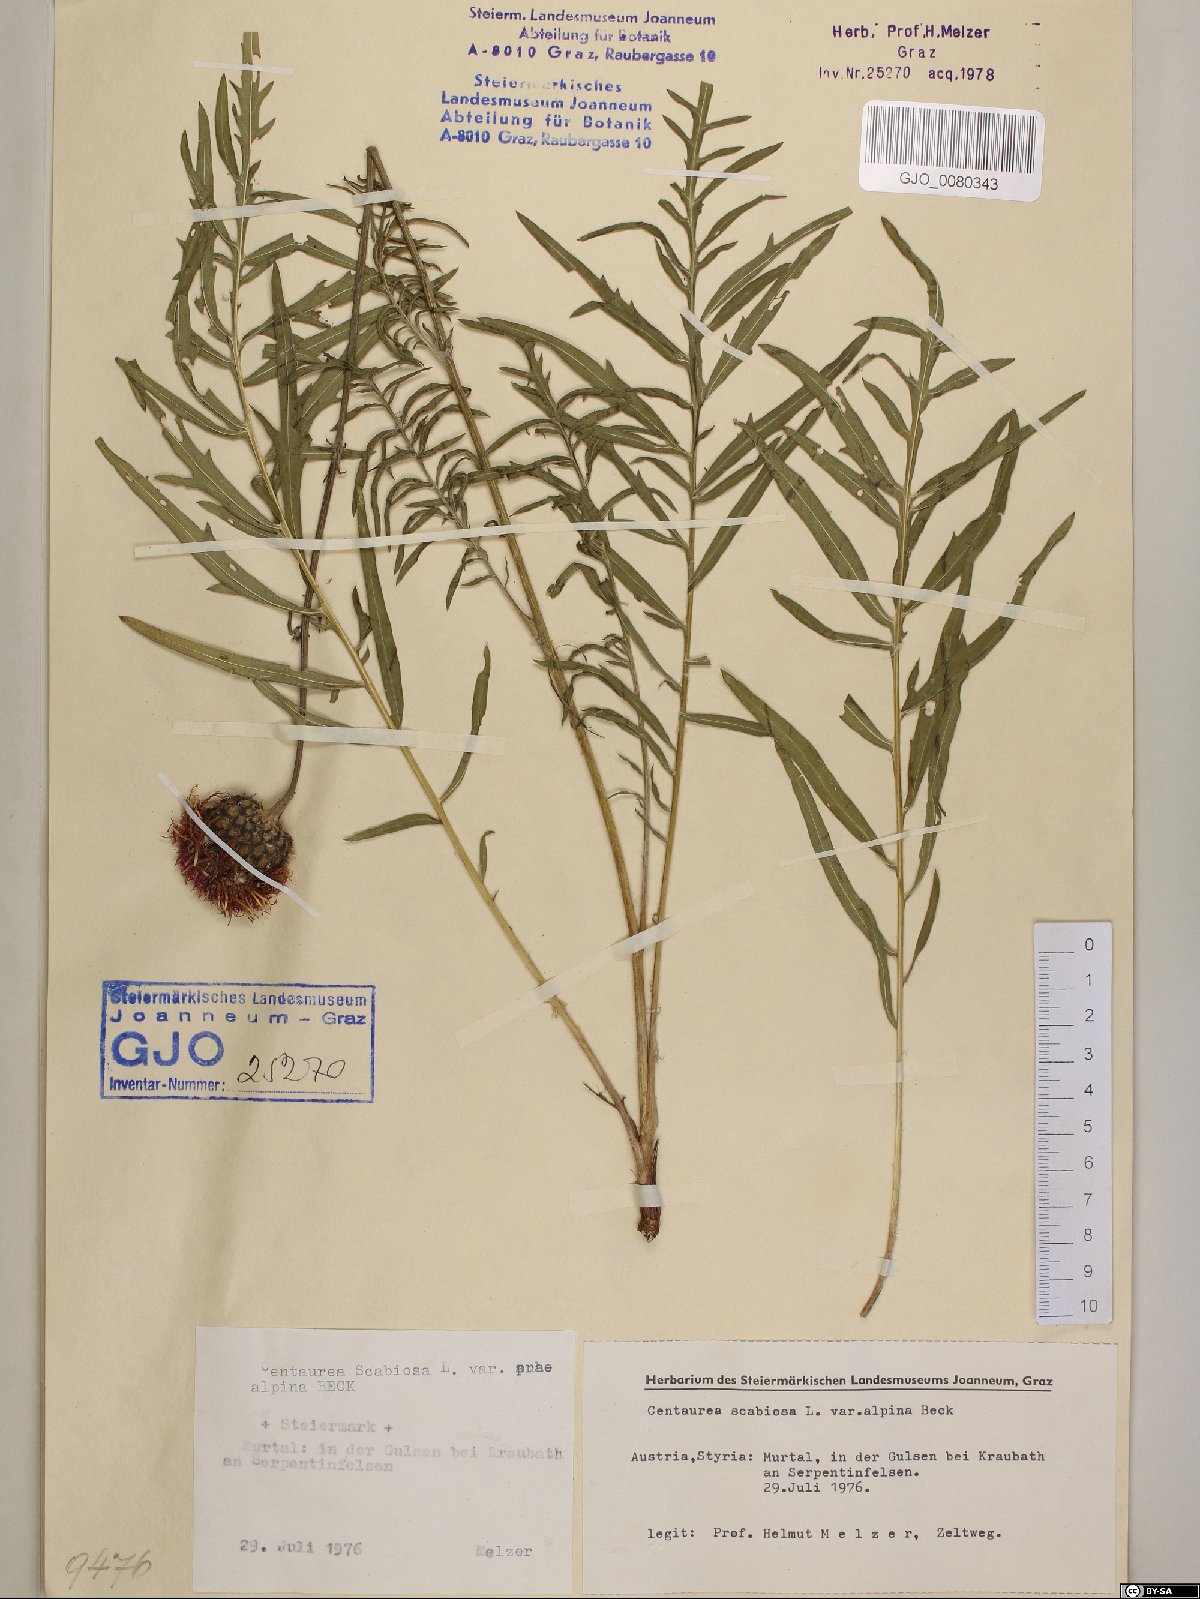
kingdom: Plantae
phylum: Tracheophyta
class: Magnoliopsida
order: Asterales
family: Asteraceae
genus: Centaurea
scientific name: Centaurea scabiosa
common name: Greater knapweed
